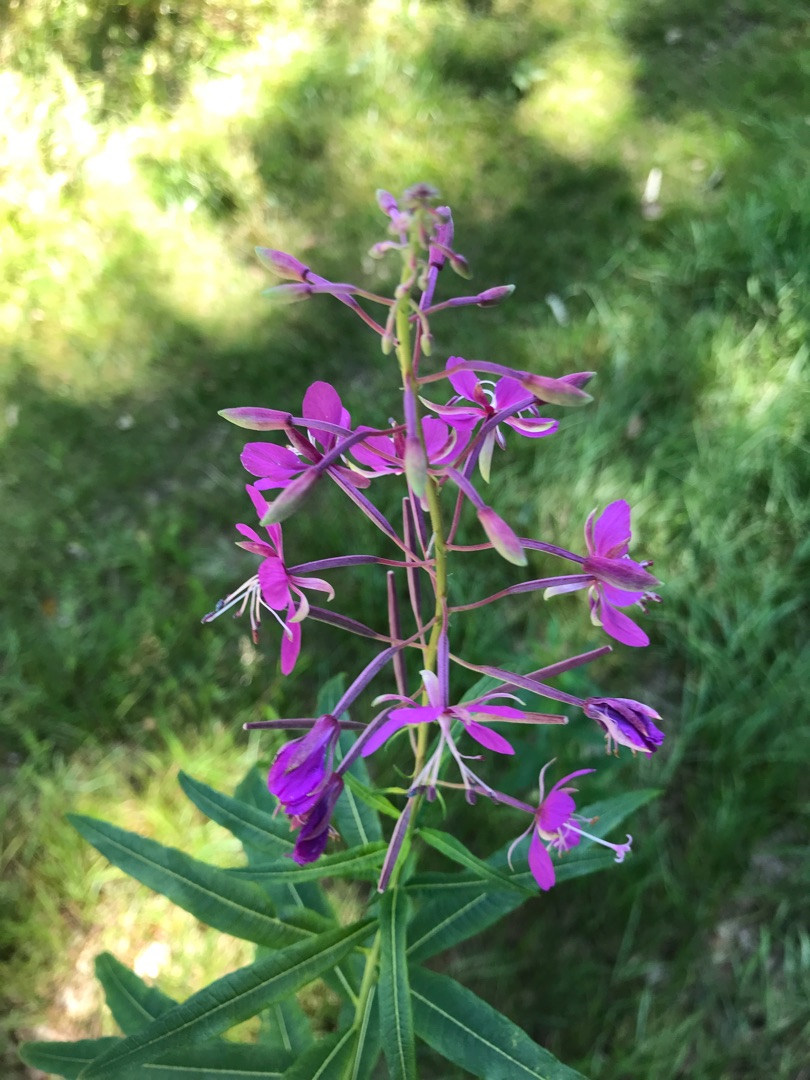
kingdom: Plantae
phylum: Tracheophyta
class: Magnoliopsida
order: Myrtales
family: Onagraceae
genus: Chamaenerion
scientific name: Chamaenerion angustifolium
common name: Gederams
